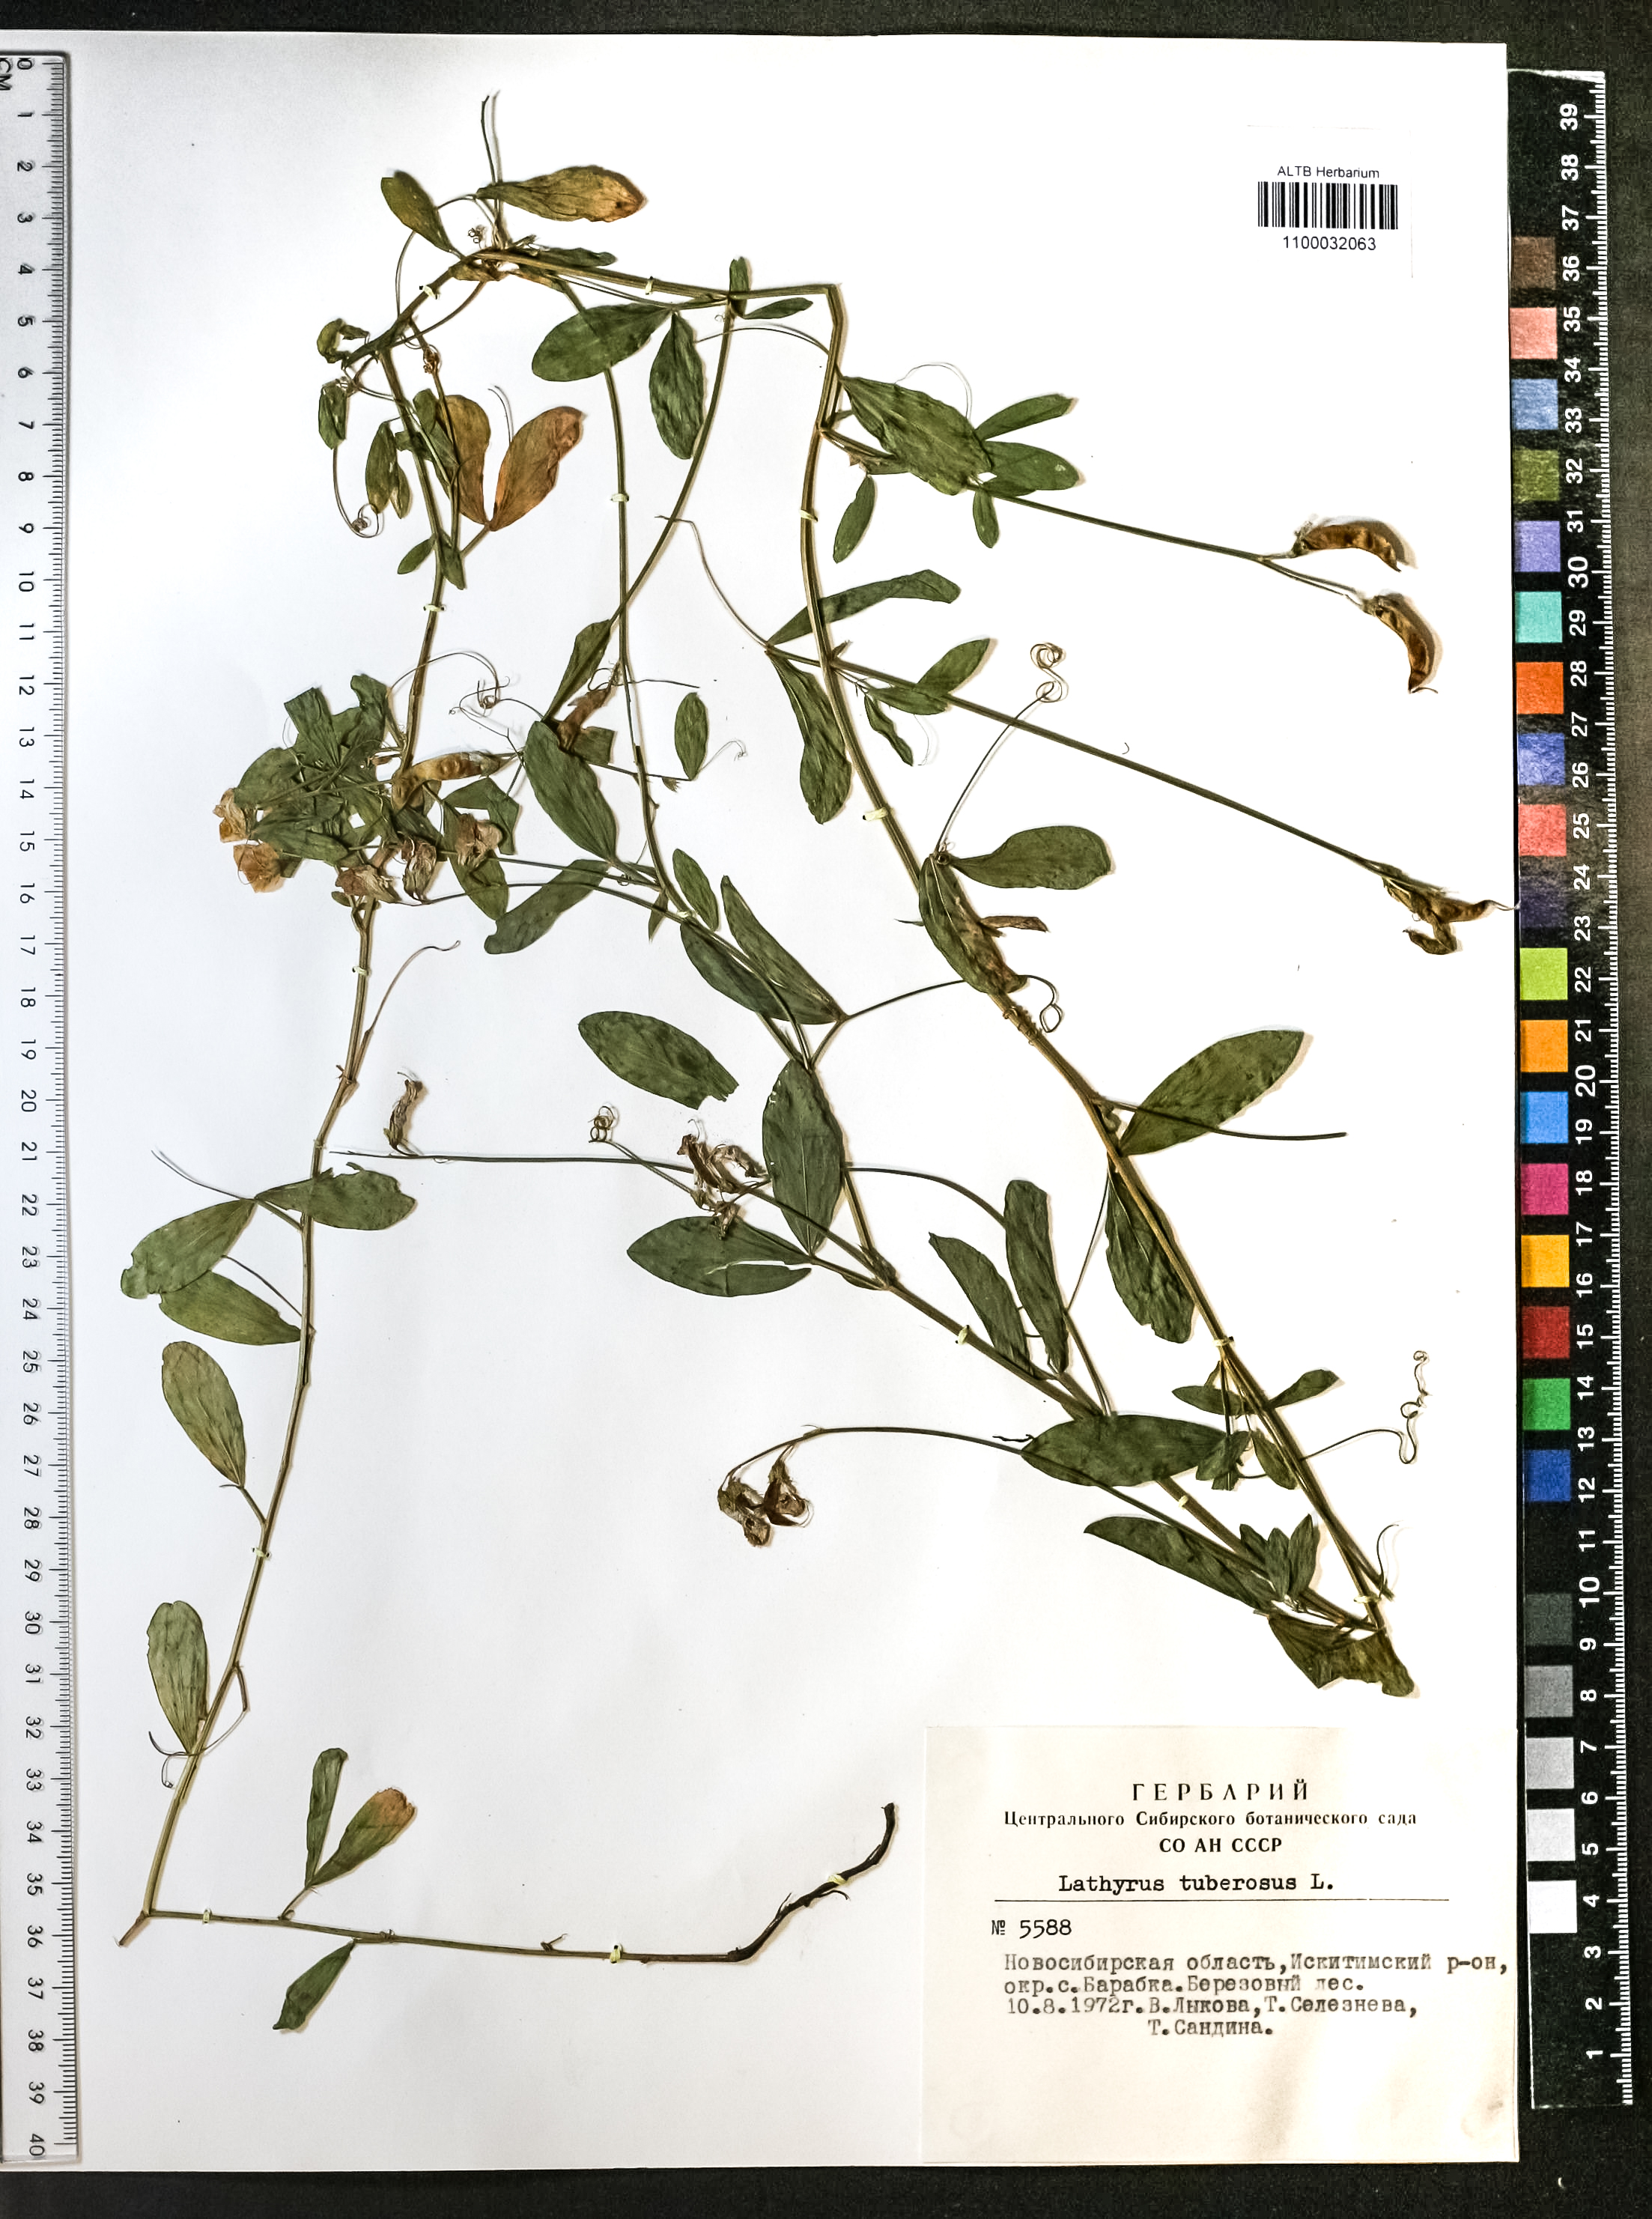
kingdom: Plantae
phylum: Tracheophyta
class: Magnoliopsida
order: Fabales
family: Fabaceae
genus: Lathyrus
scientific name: Lathyrus tuberosus
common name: Tuberous pea
